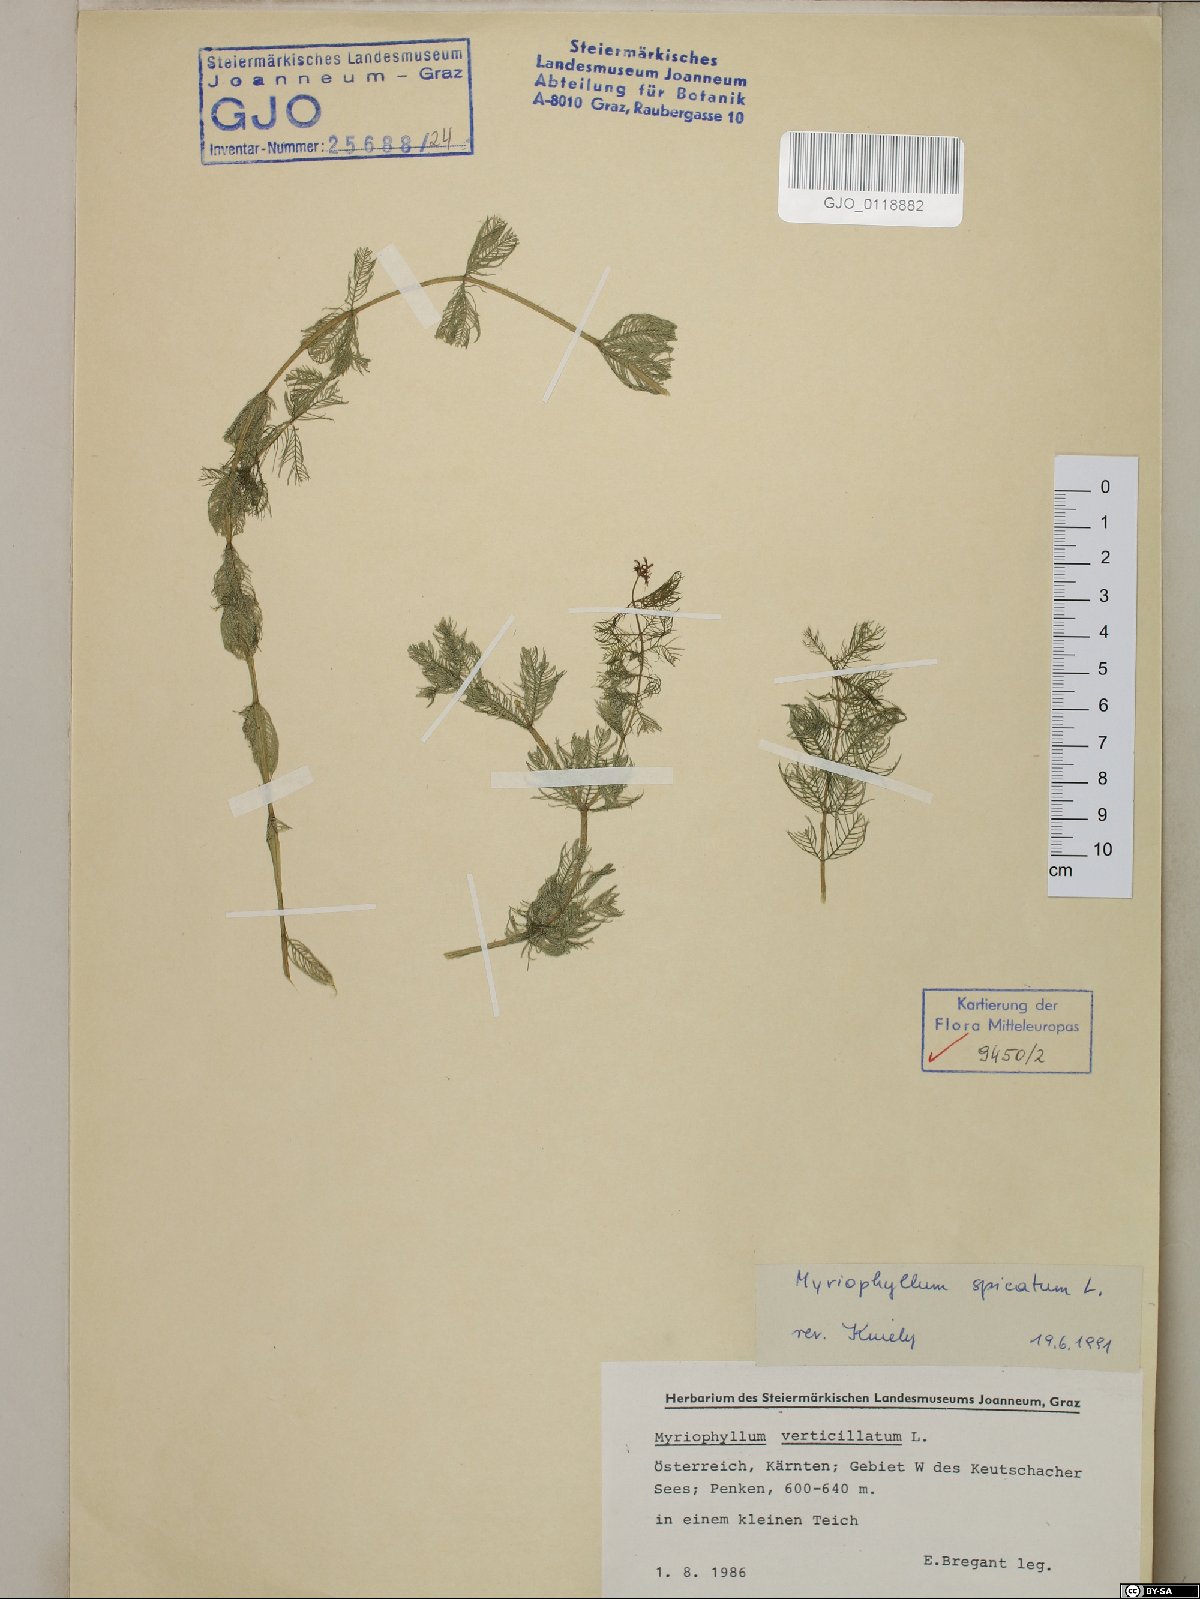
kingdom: Plantae
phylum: Tracheophyta
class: Magnoliopsida
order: Saxifragales
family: Haloragaceae
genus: Myriophyllum
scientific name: Myriophyllum spicatum
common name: Spiked water-milfoil
